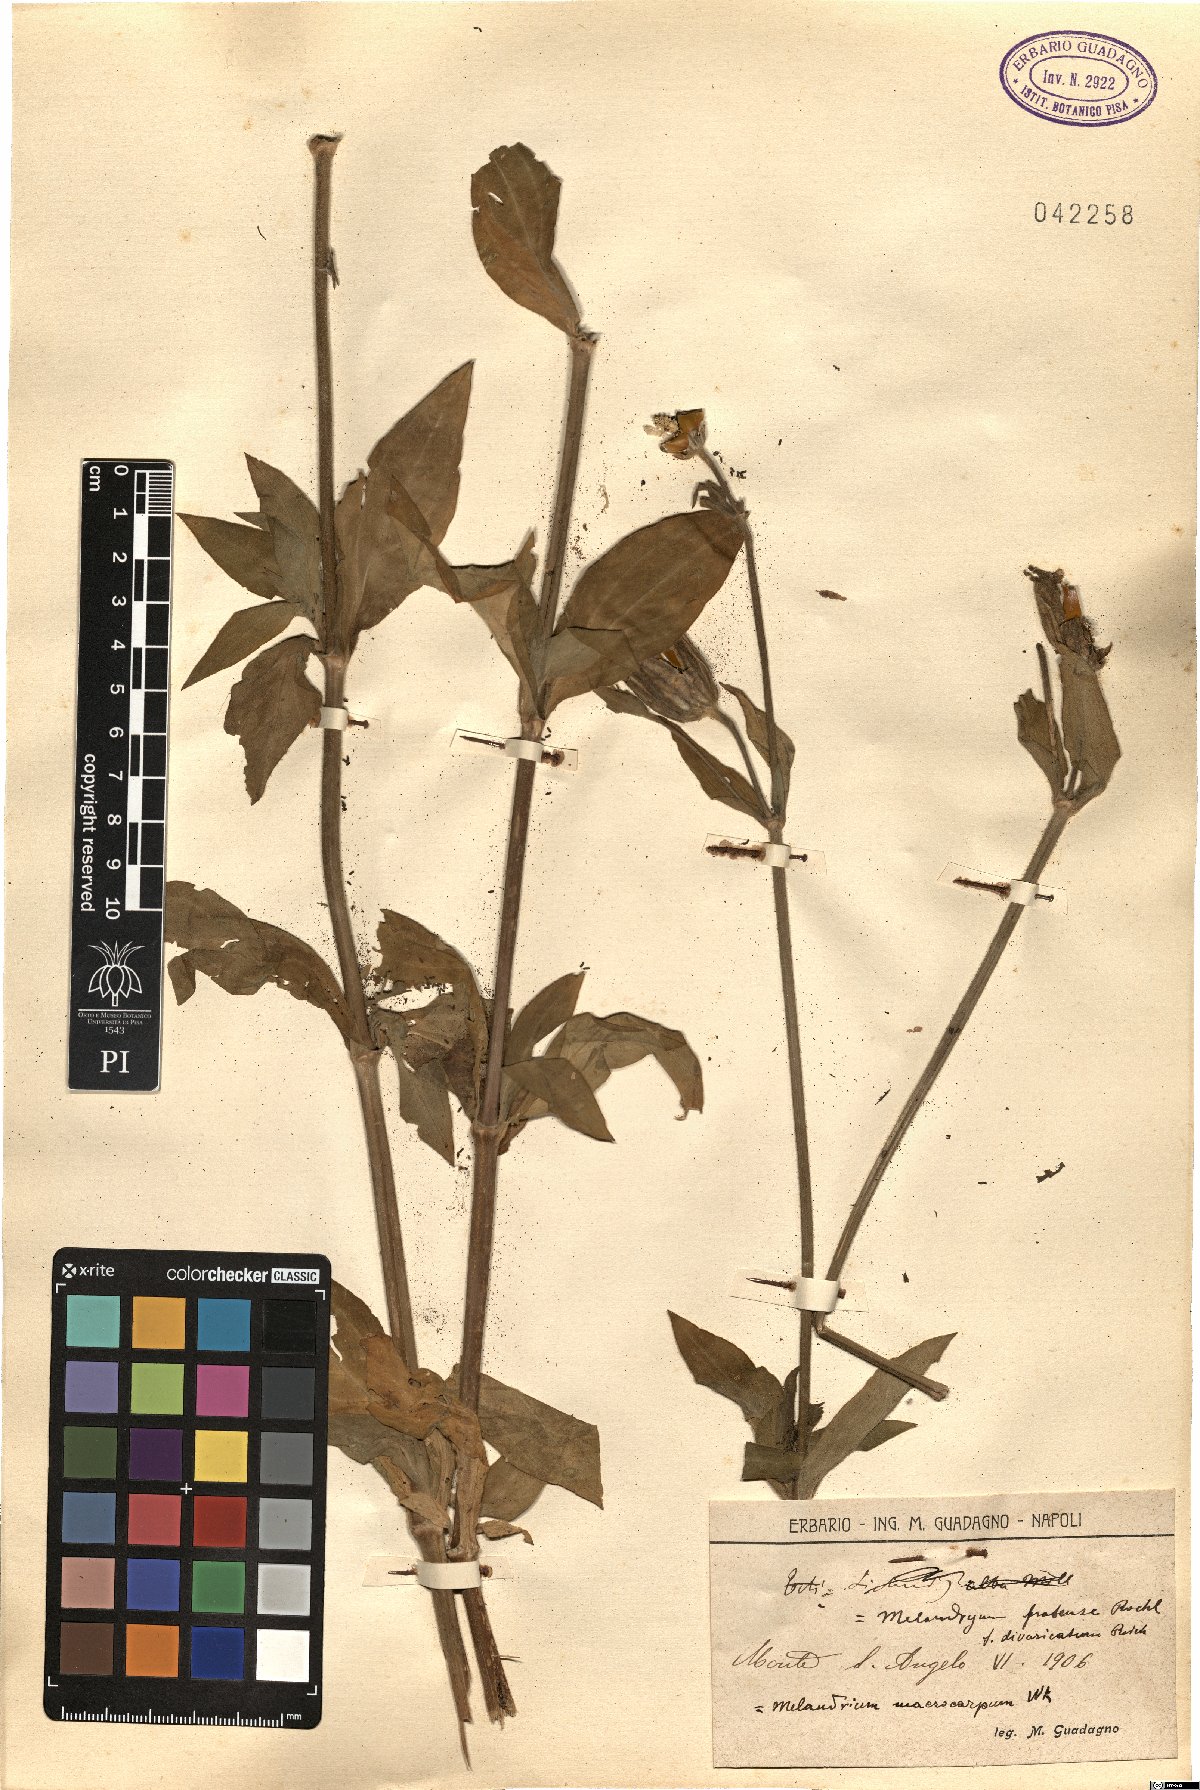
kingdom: Plantae
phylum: Tracheophyta
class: Magnoliopsida
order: Caryophyllales
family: Caryophyllaceae
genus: Silene
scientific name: Silene latifolia
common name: White campion
